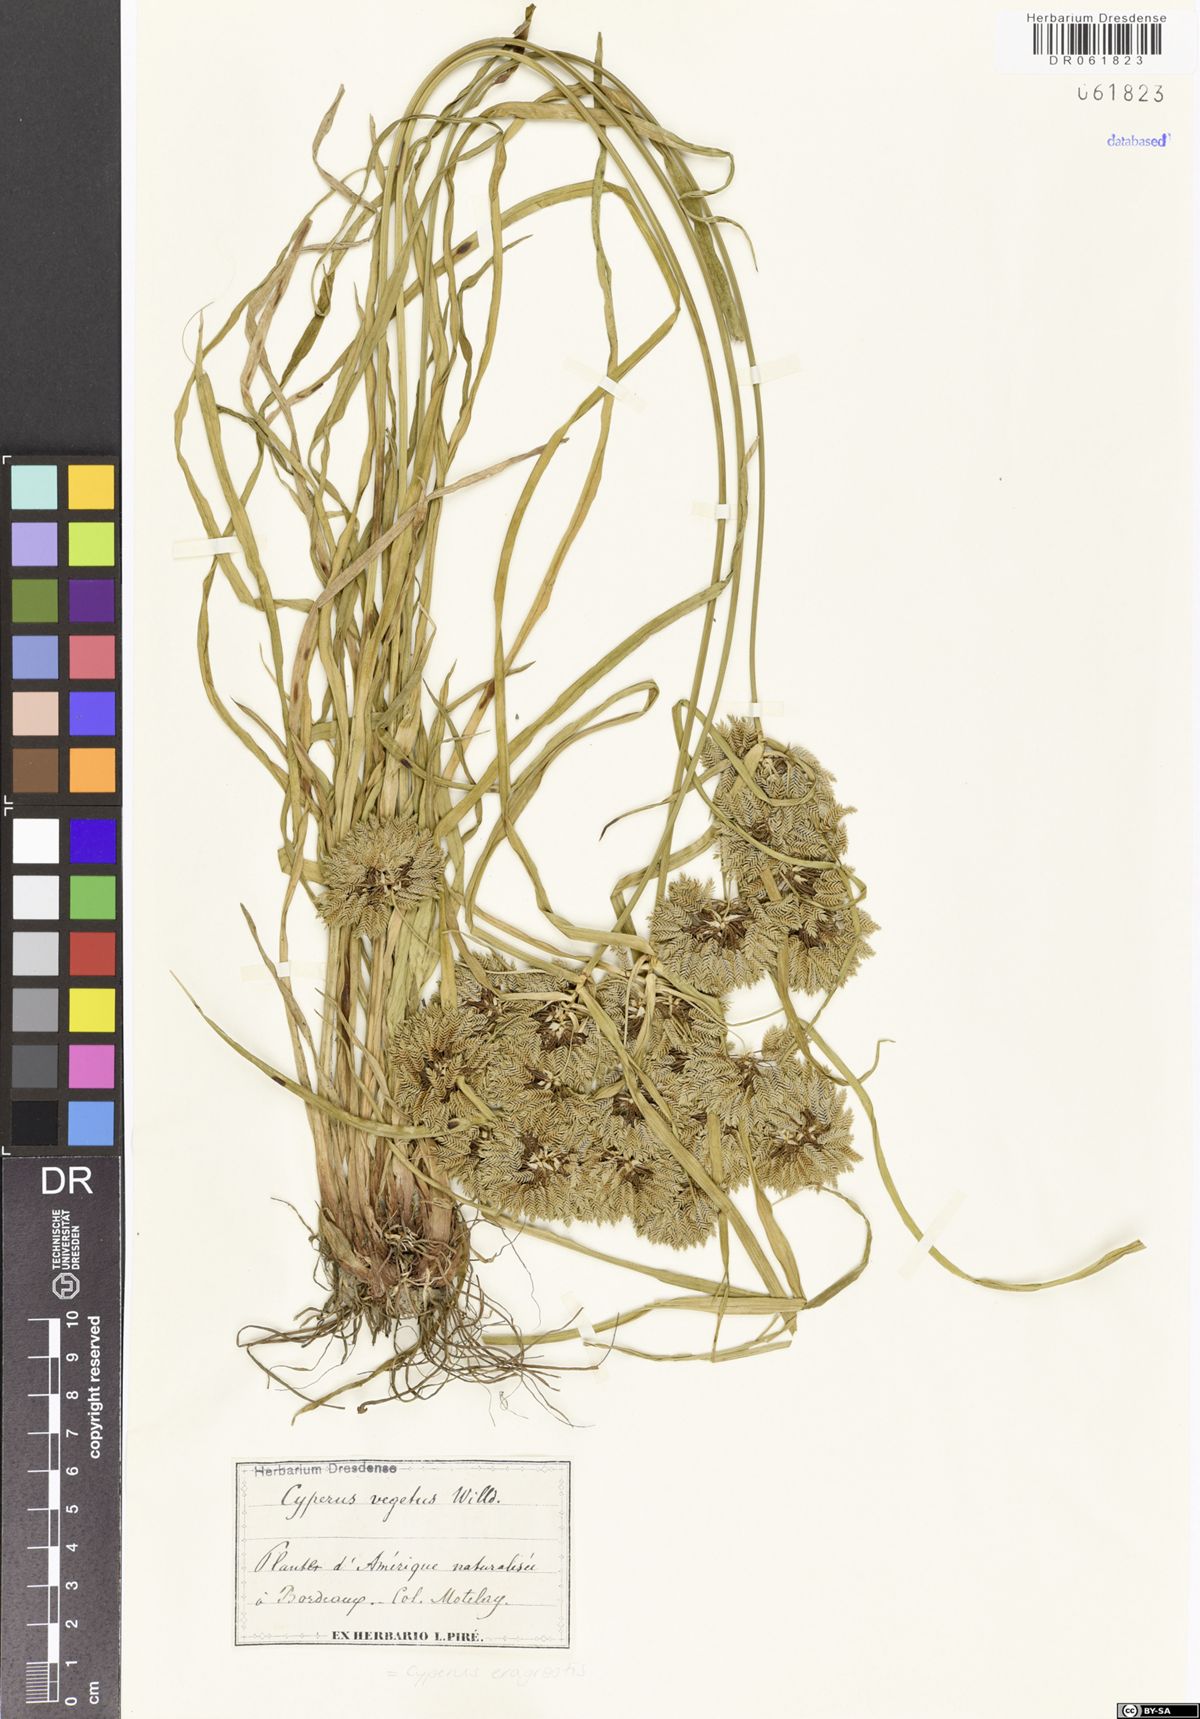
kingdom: Plantae
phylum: Tracheophyta
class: Liliopsida
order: Poales
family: Cyperaceae
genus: Cyperus
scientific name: Cyperus eragrostis
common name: Tall flatsedge
